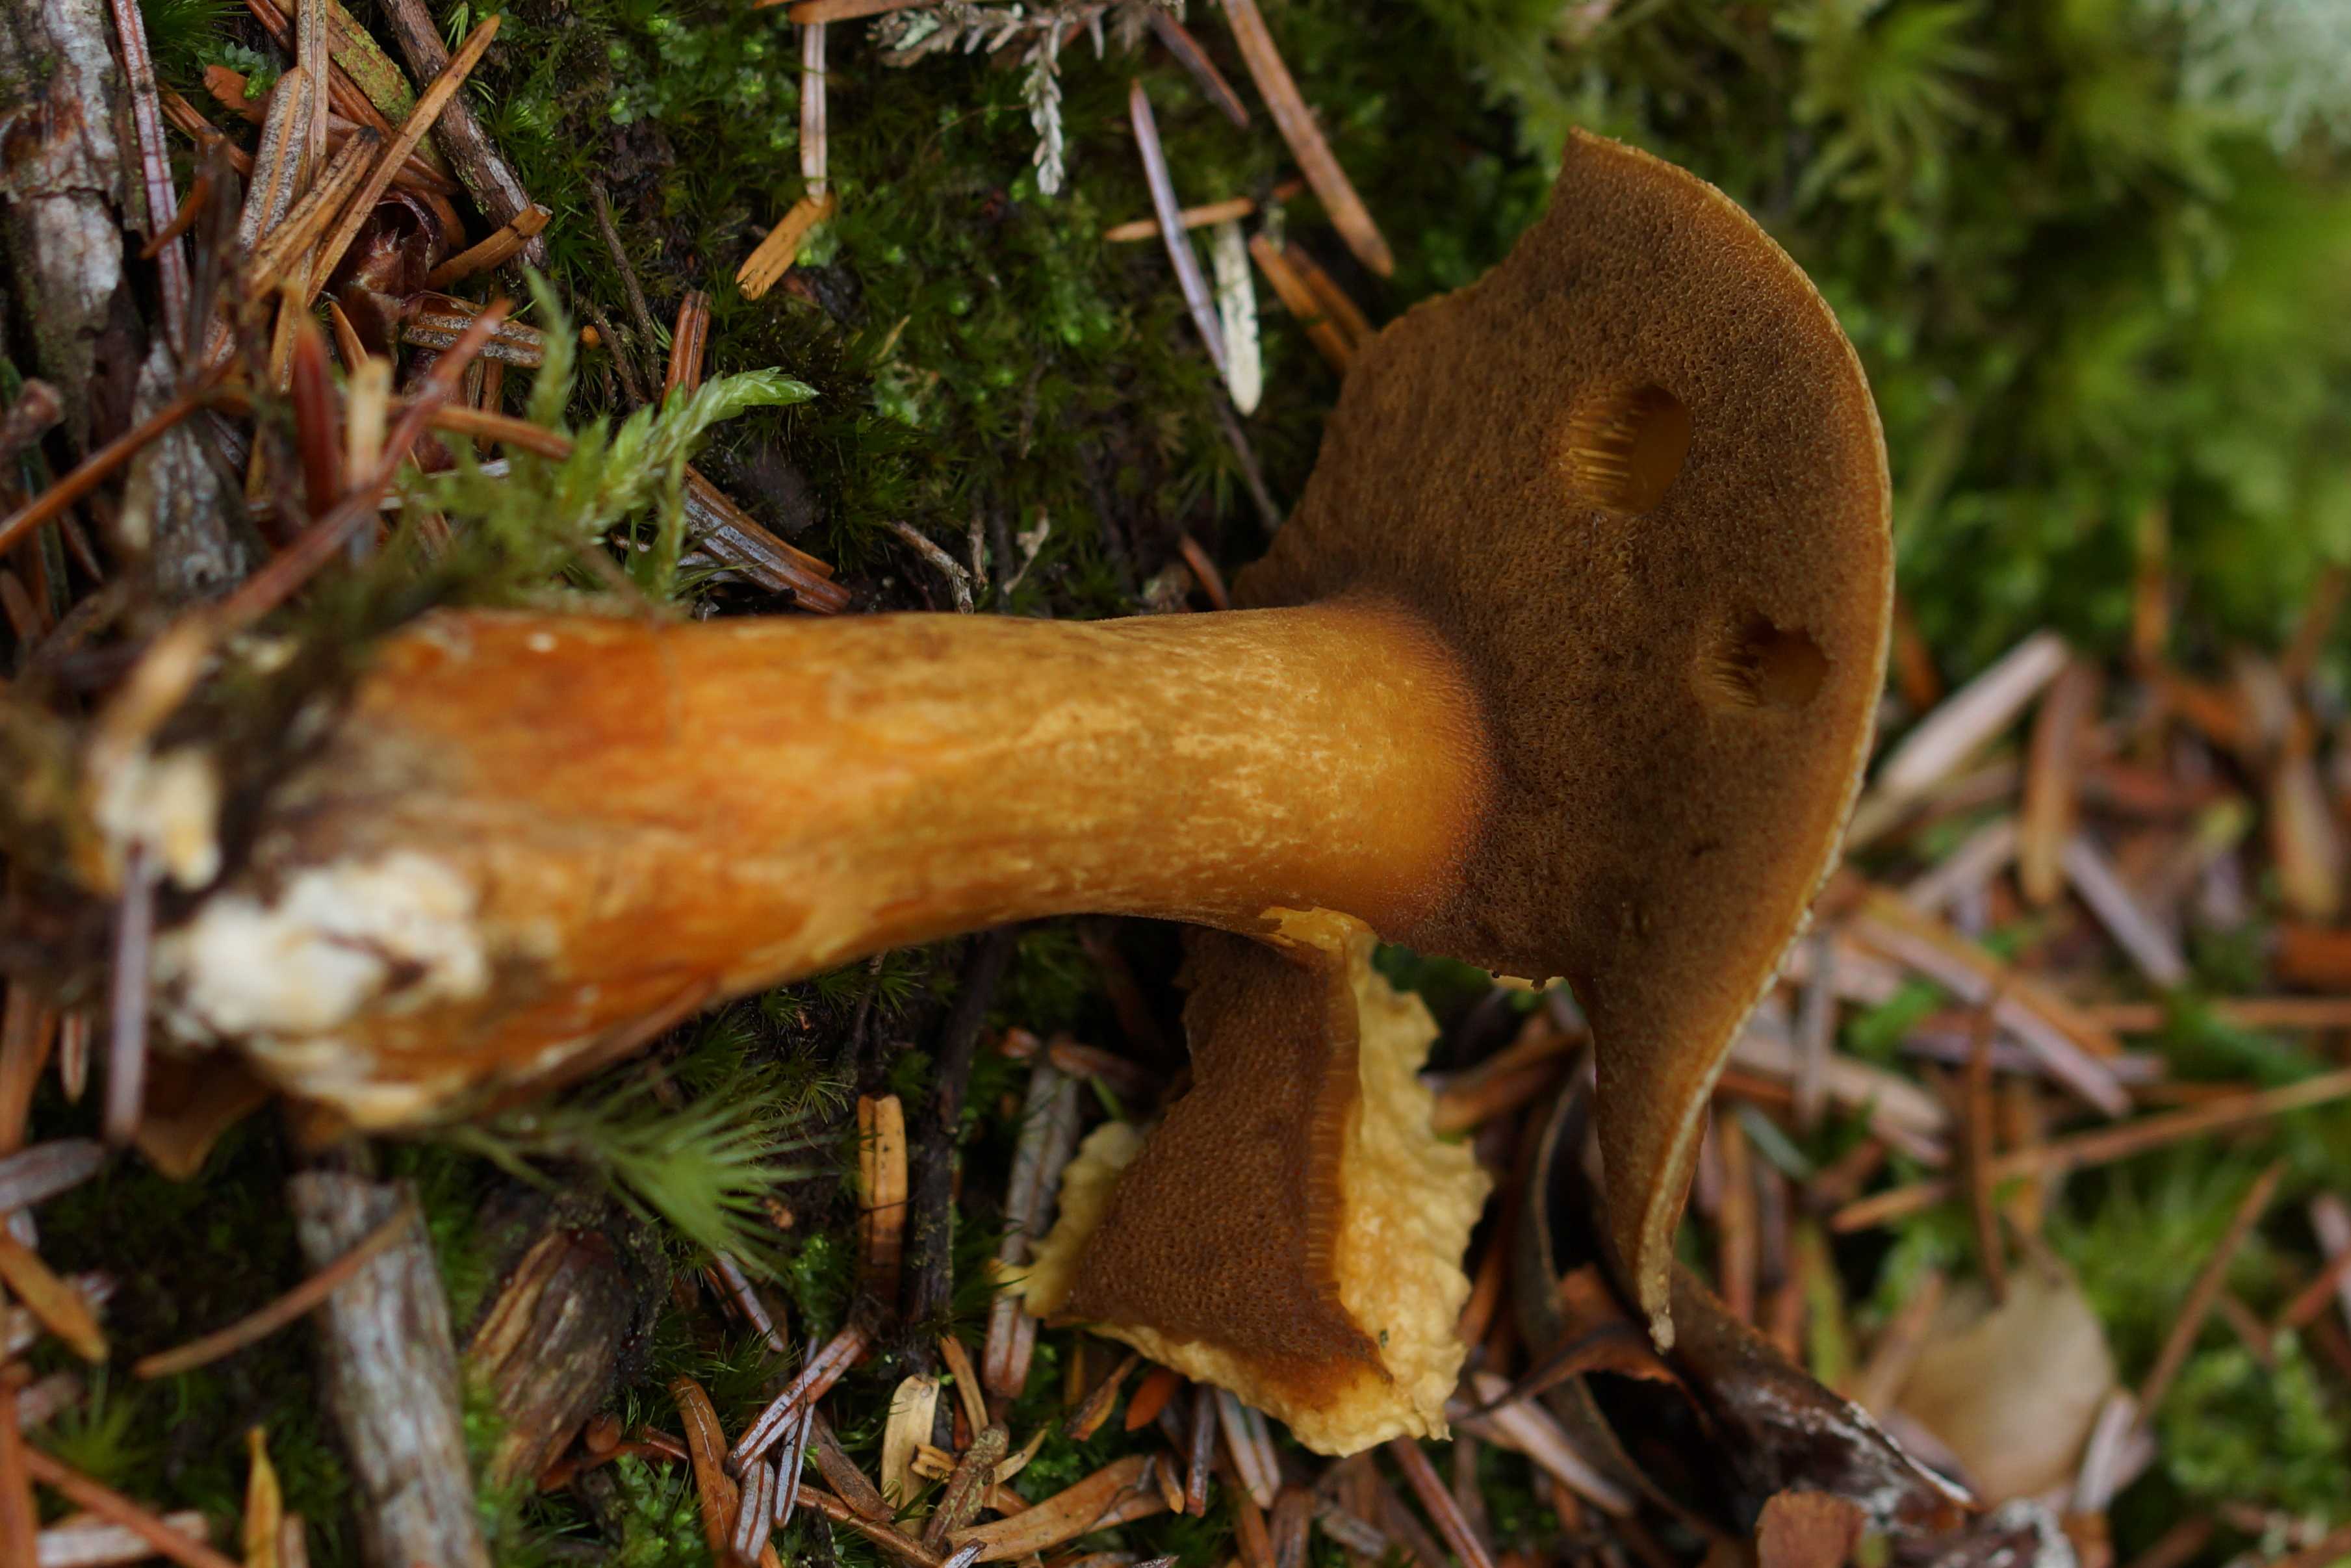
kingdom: Fungi
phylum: Basidiomycota
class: Agaricomycetes
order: Boletales
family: Suillaceae
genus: Suillus
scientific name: Suillus variegatus
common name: broget slimrørhat
